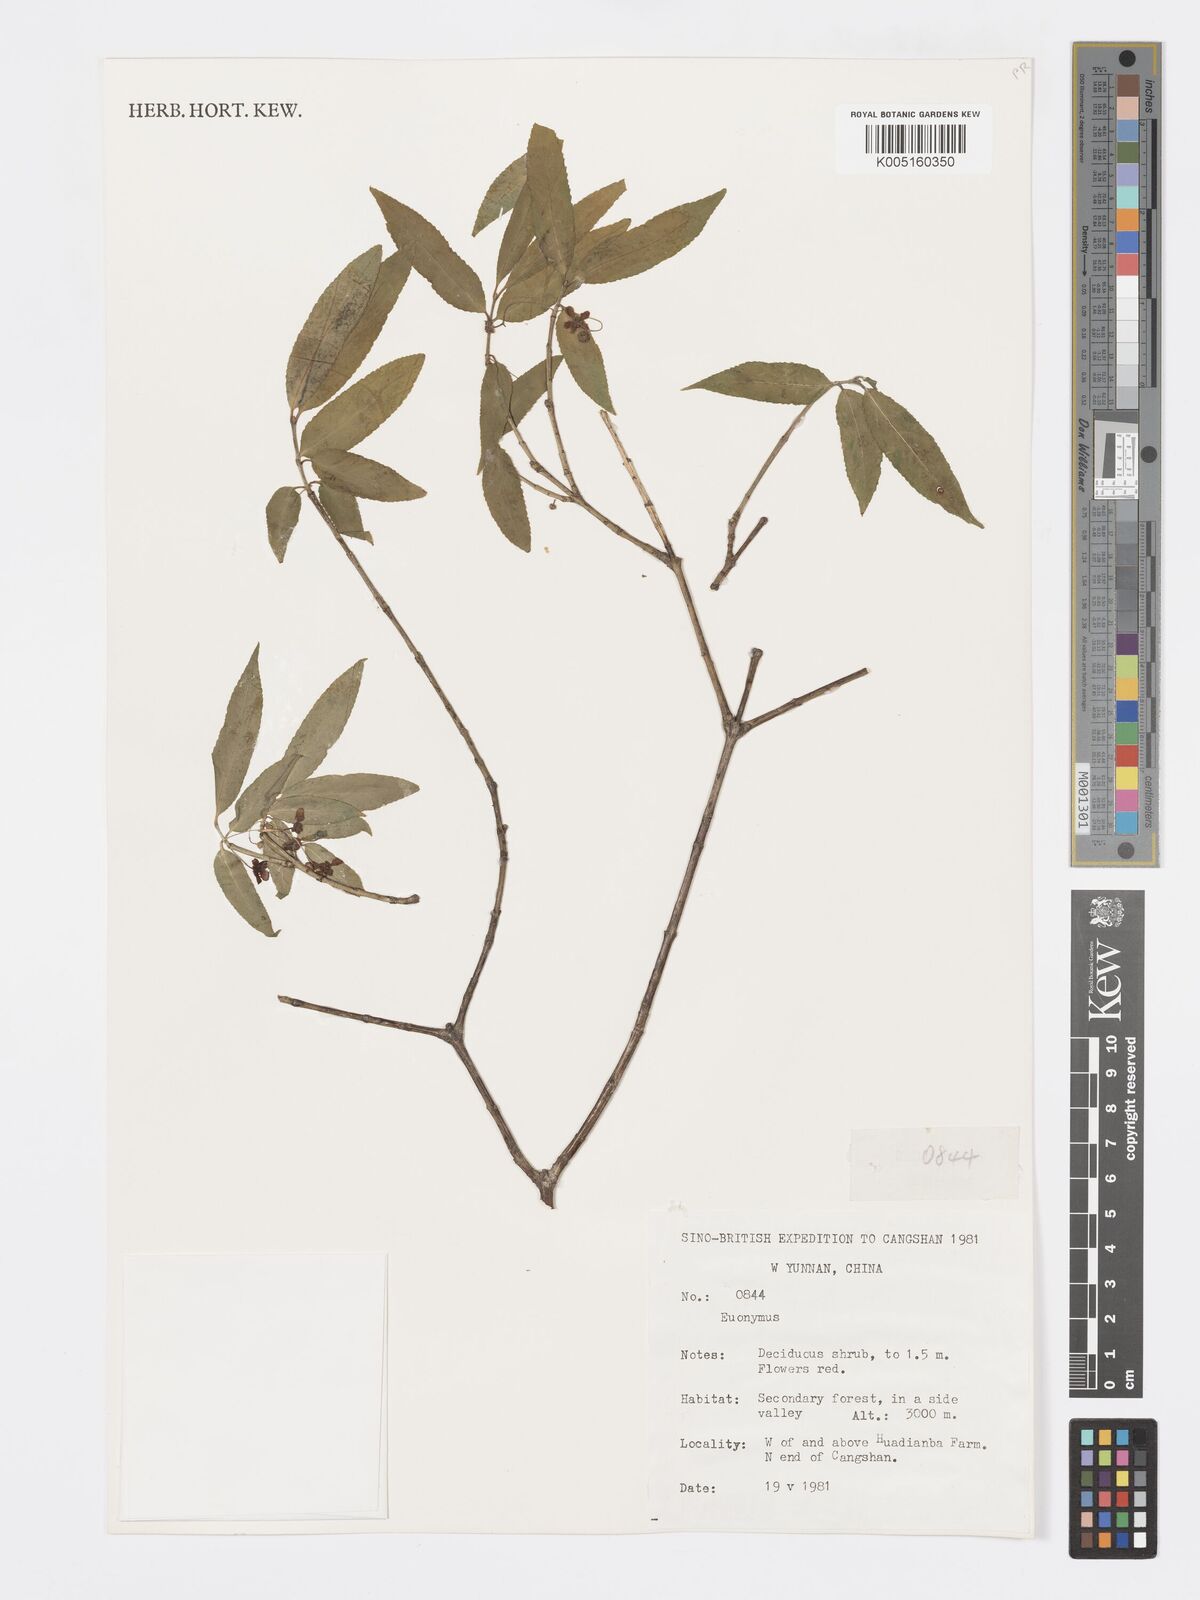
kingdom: Plantae
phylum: Tracheophyta
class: Magnoliopsida
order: Celastrales
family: Celastraceae
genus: Euonymus
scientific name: Euonymus
